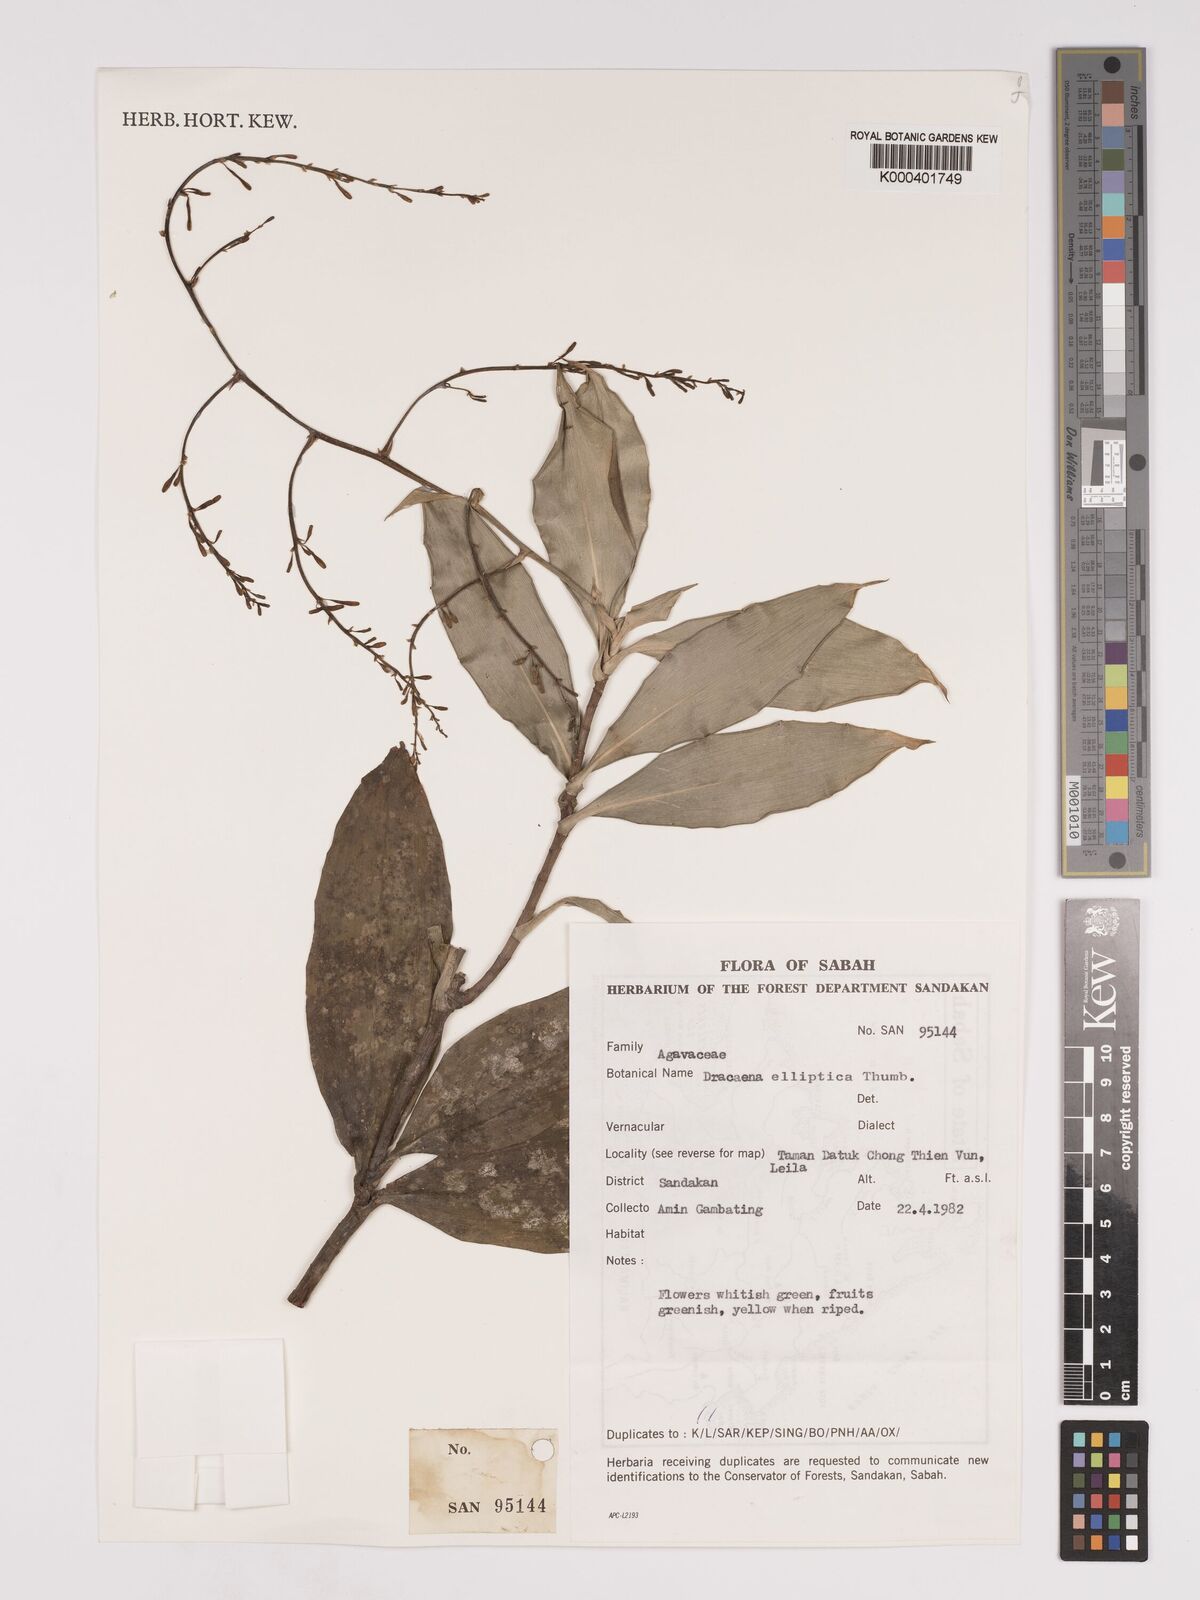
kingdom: Plantae
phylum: Tracheophyta
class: Liliopsida
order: Asparagales
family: Asparagaceae
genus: Dracaena
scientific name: Dracaena elliptica
